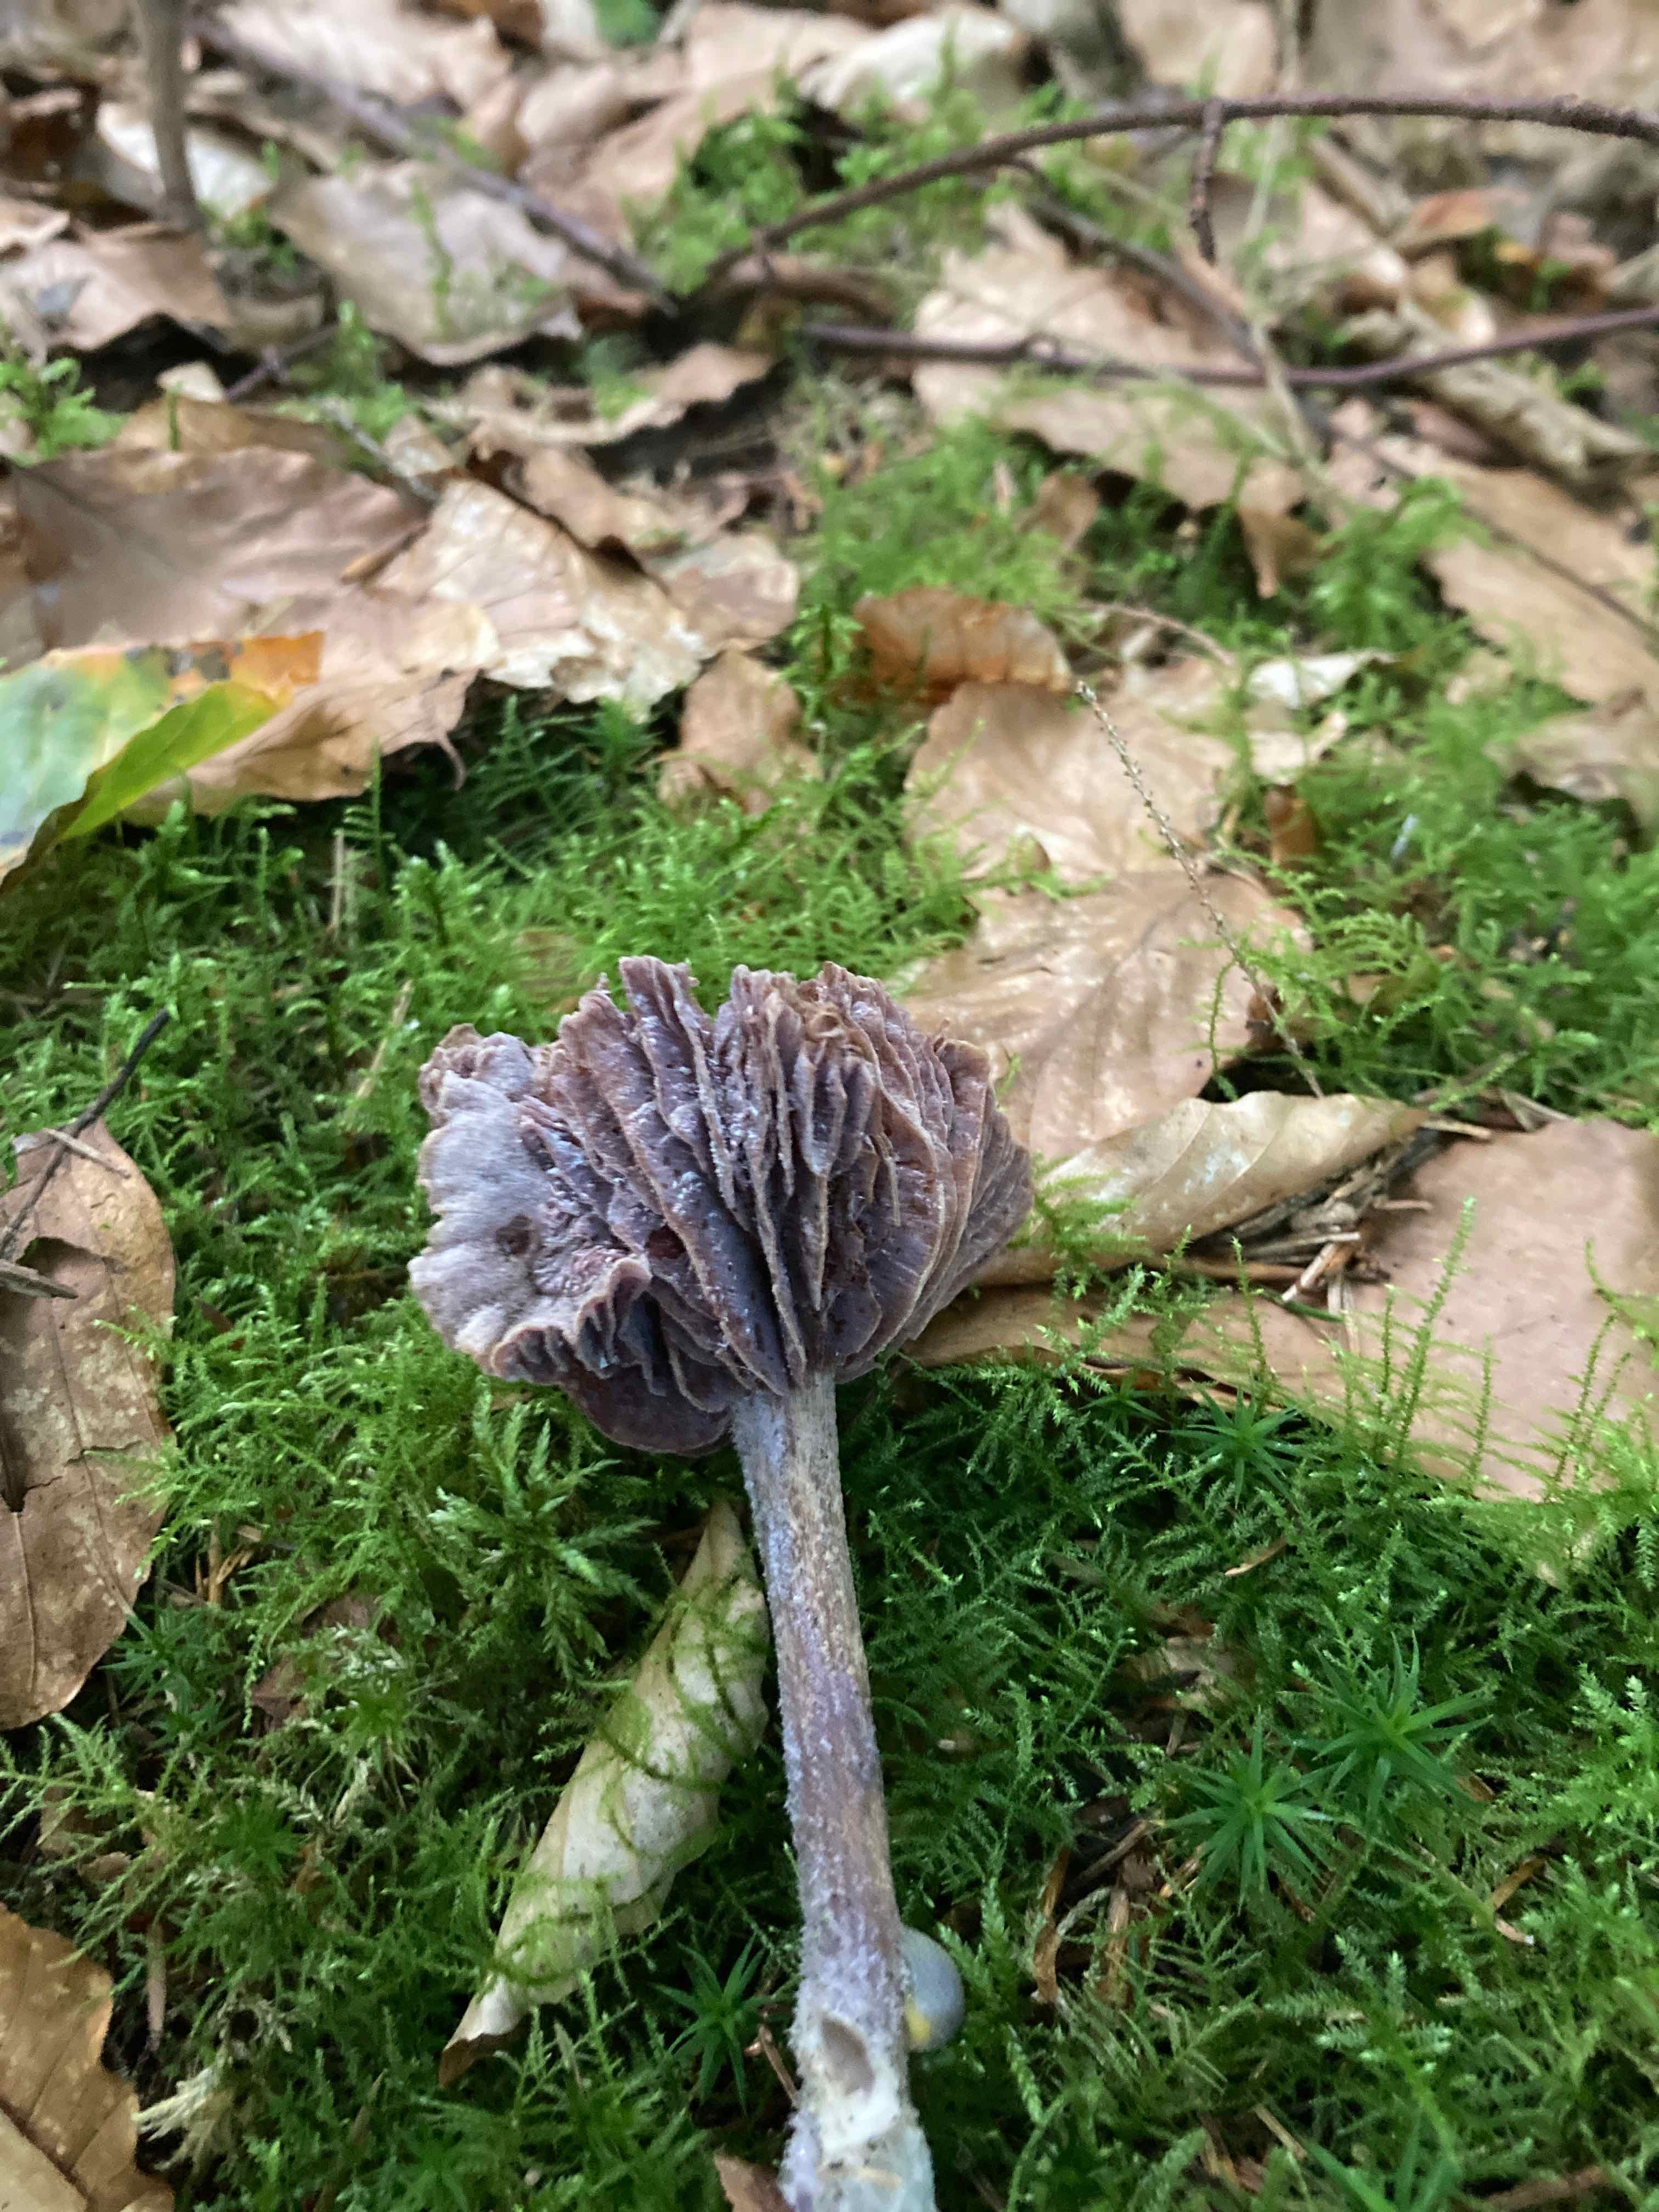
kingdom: Fungi
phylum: Basidiomycota
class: Agaricomycetes
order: Agaricales
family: Hydnangiaceae
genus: Laccaria
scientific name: Laccaria amethystina
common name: violet ametysthat
